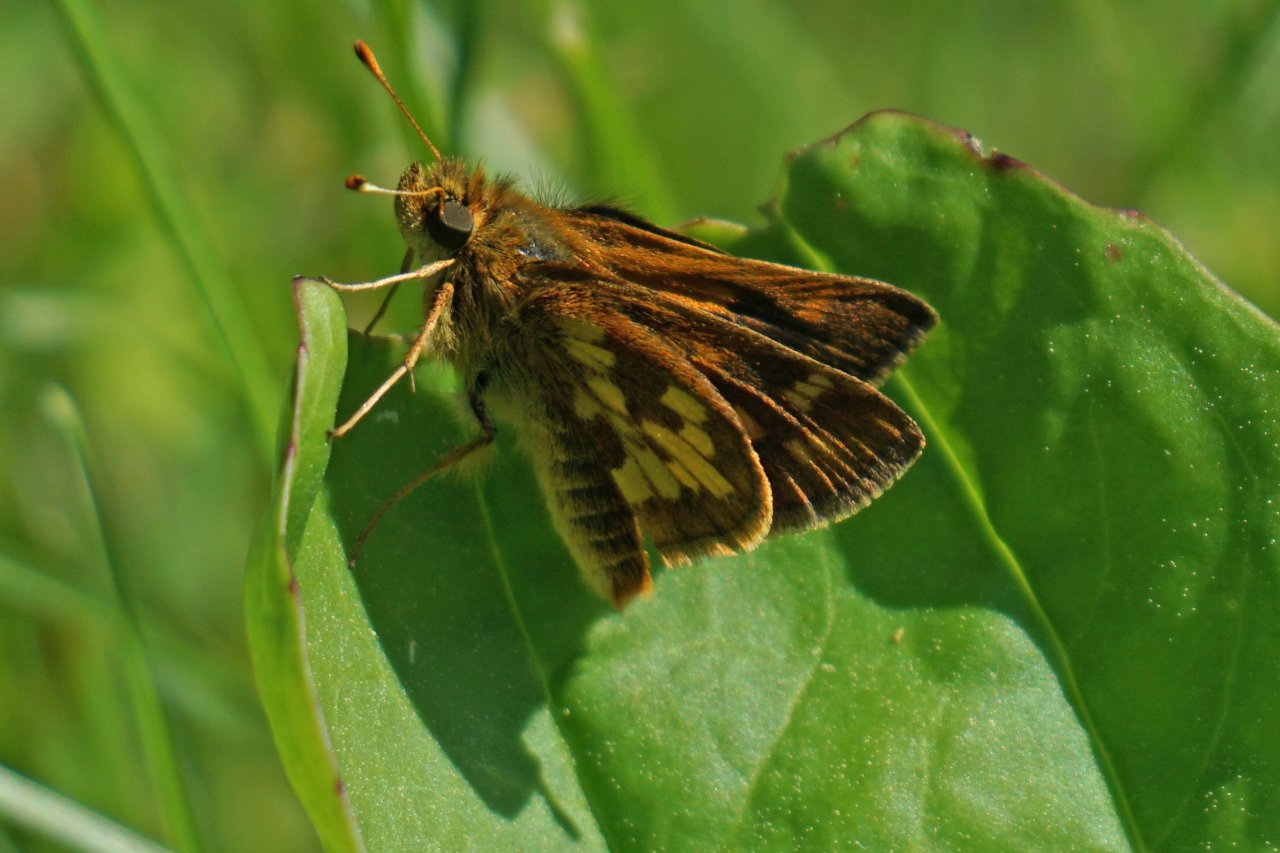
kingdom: Animalia
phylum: Arthropoda
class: Insecta
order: Lepidoptera
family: Hesperiidae
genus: Polites
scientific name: Polites coras
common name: Peck's Skipper
